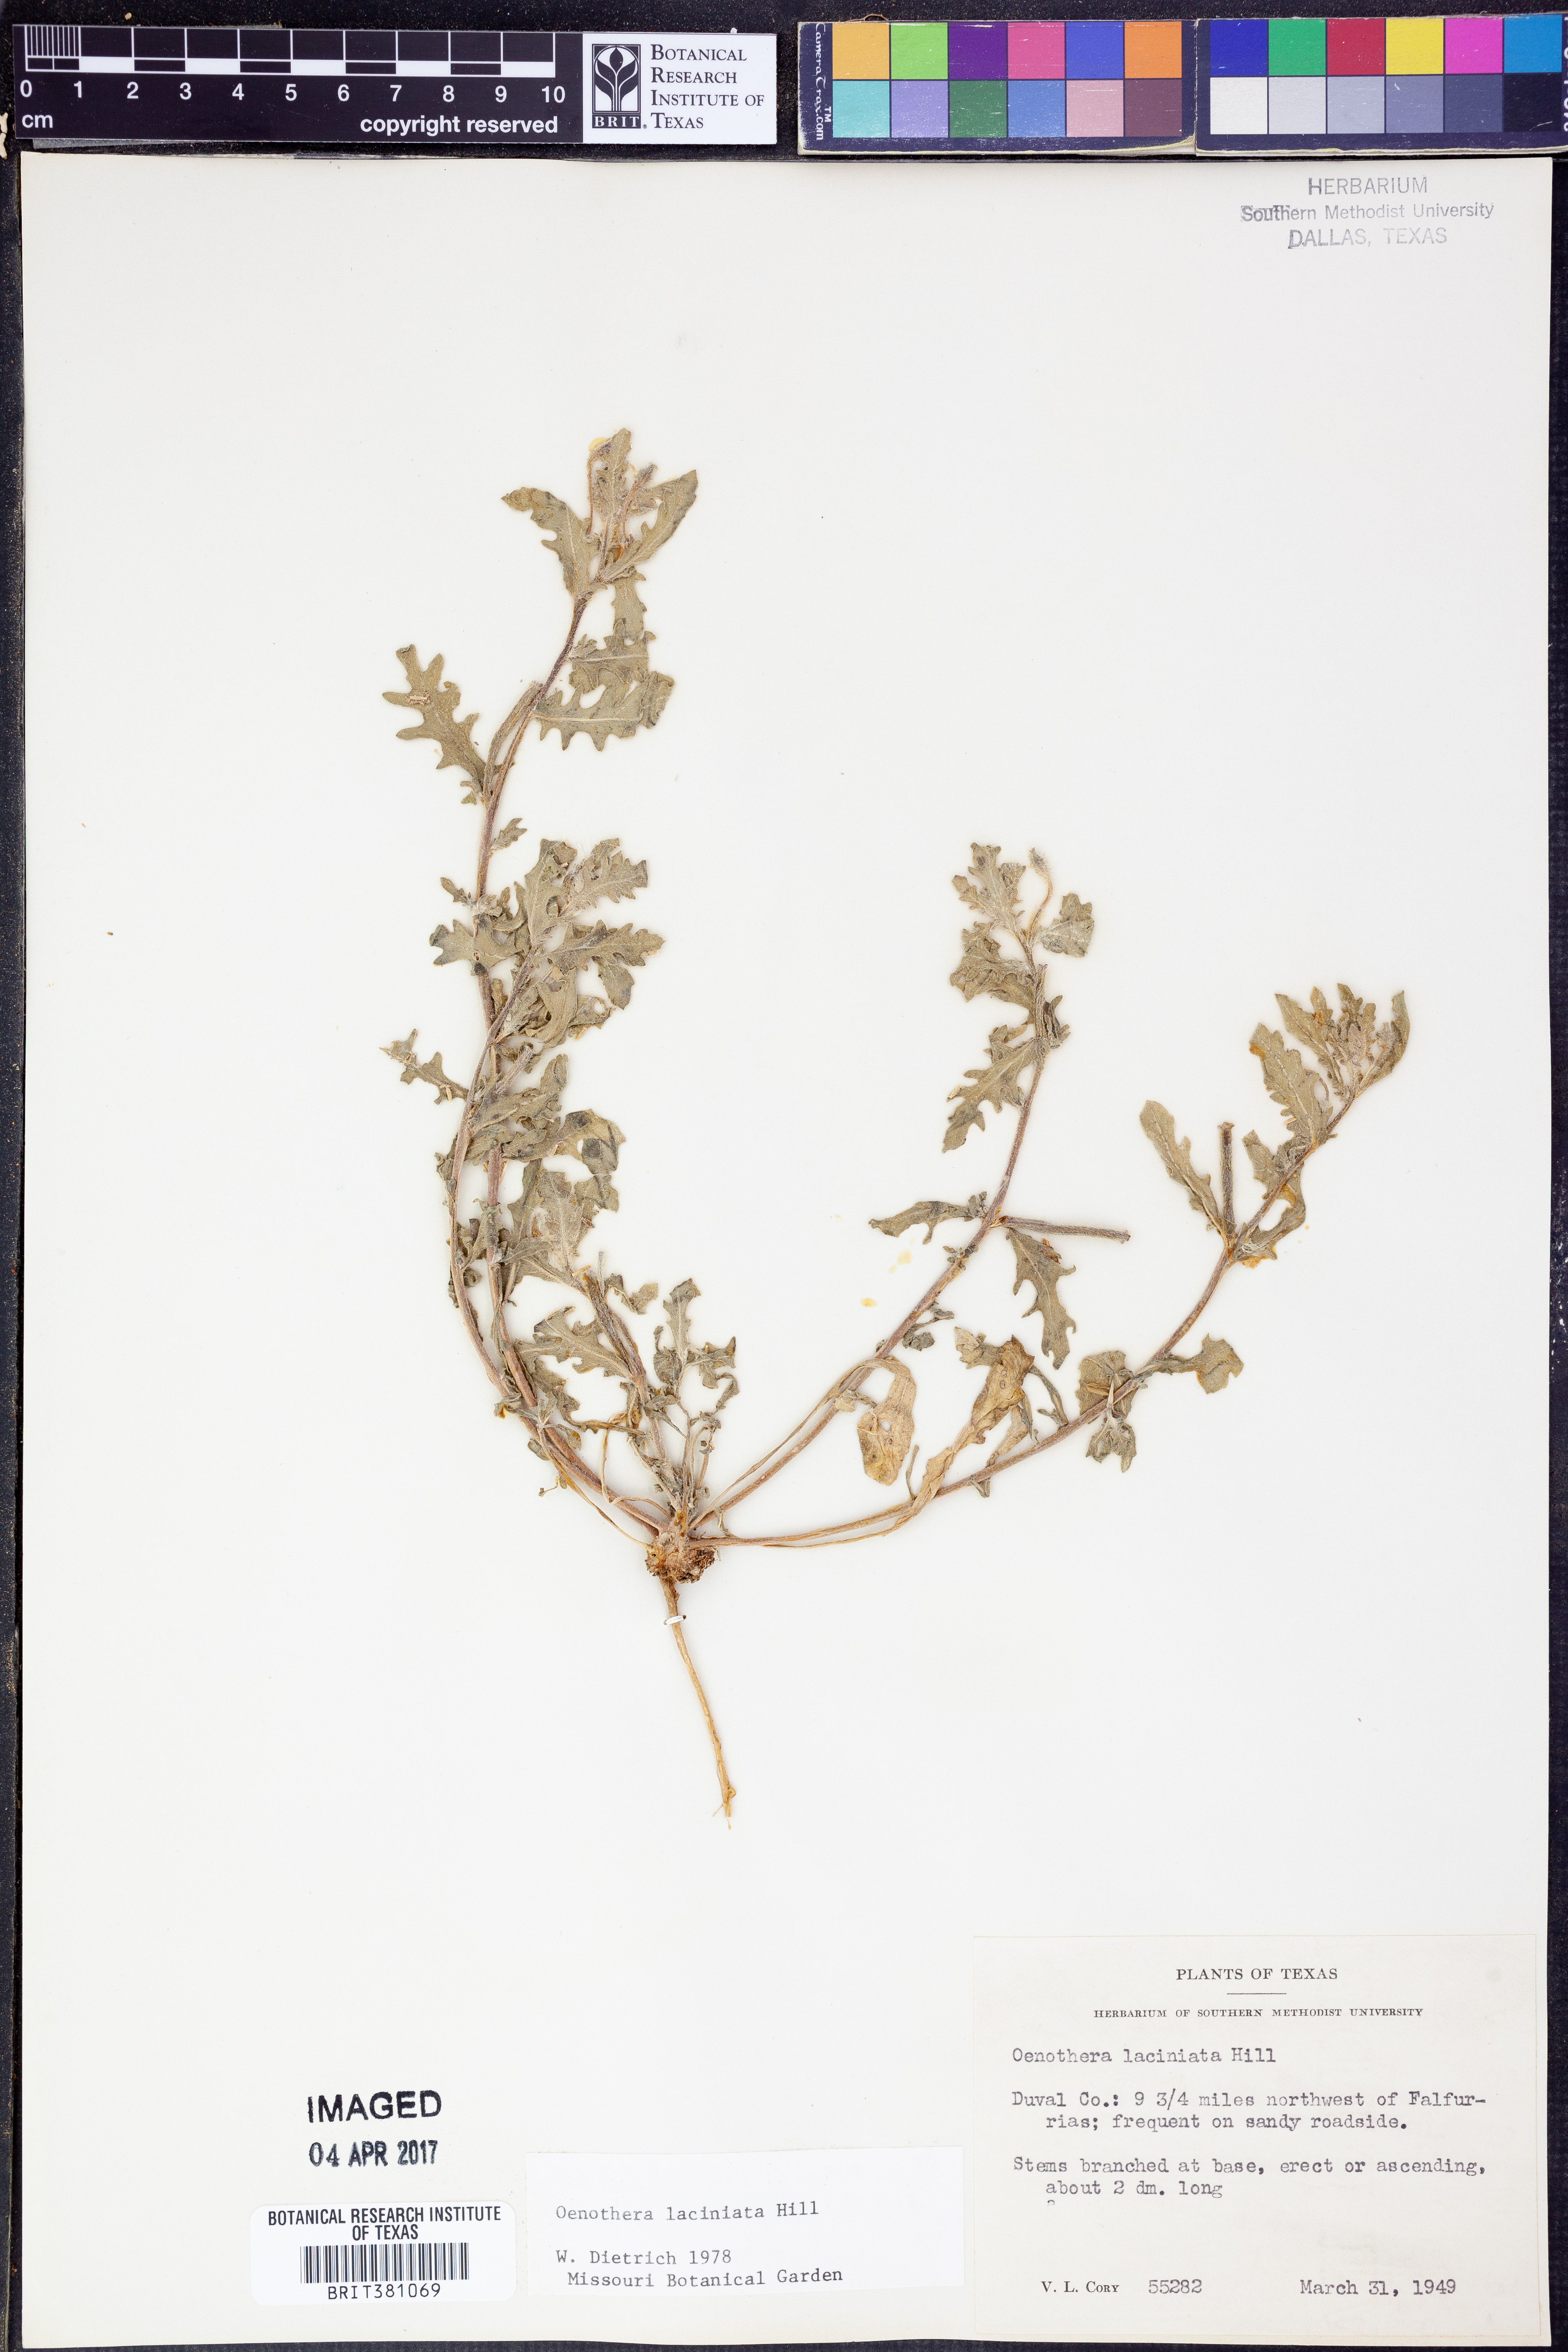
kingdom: Plantae
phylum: Tracheophyta
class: Magnoliopsida
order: Myrtales
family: Onagraceae
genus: Oenothera
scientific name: Oenothera laciniata
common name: Cut-leaved evening-primrose
